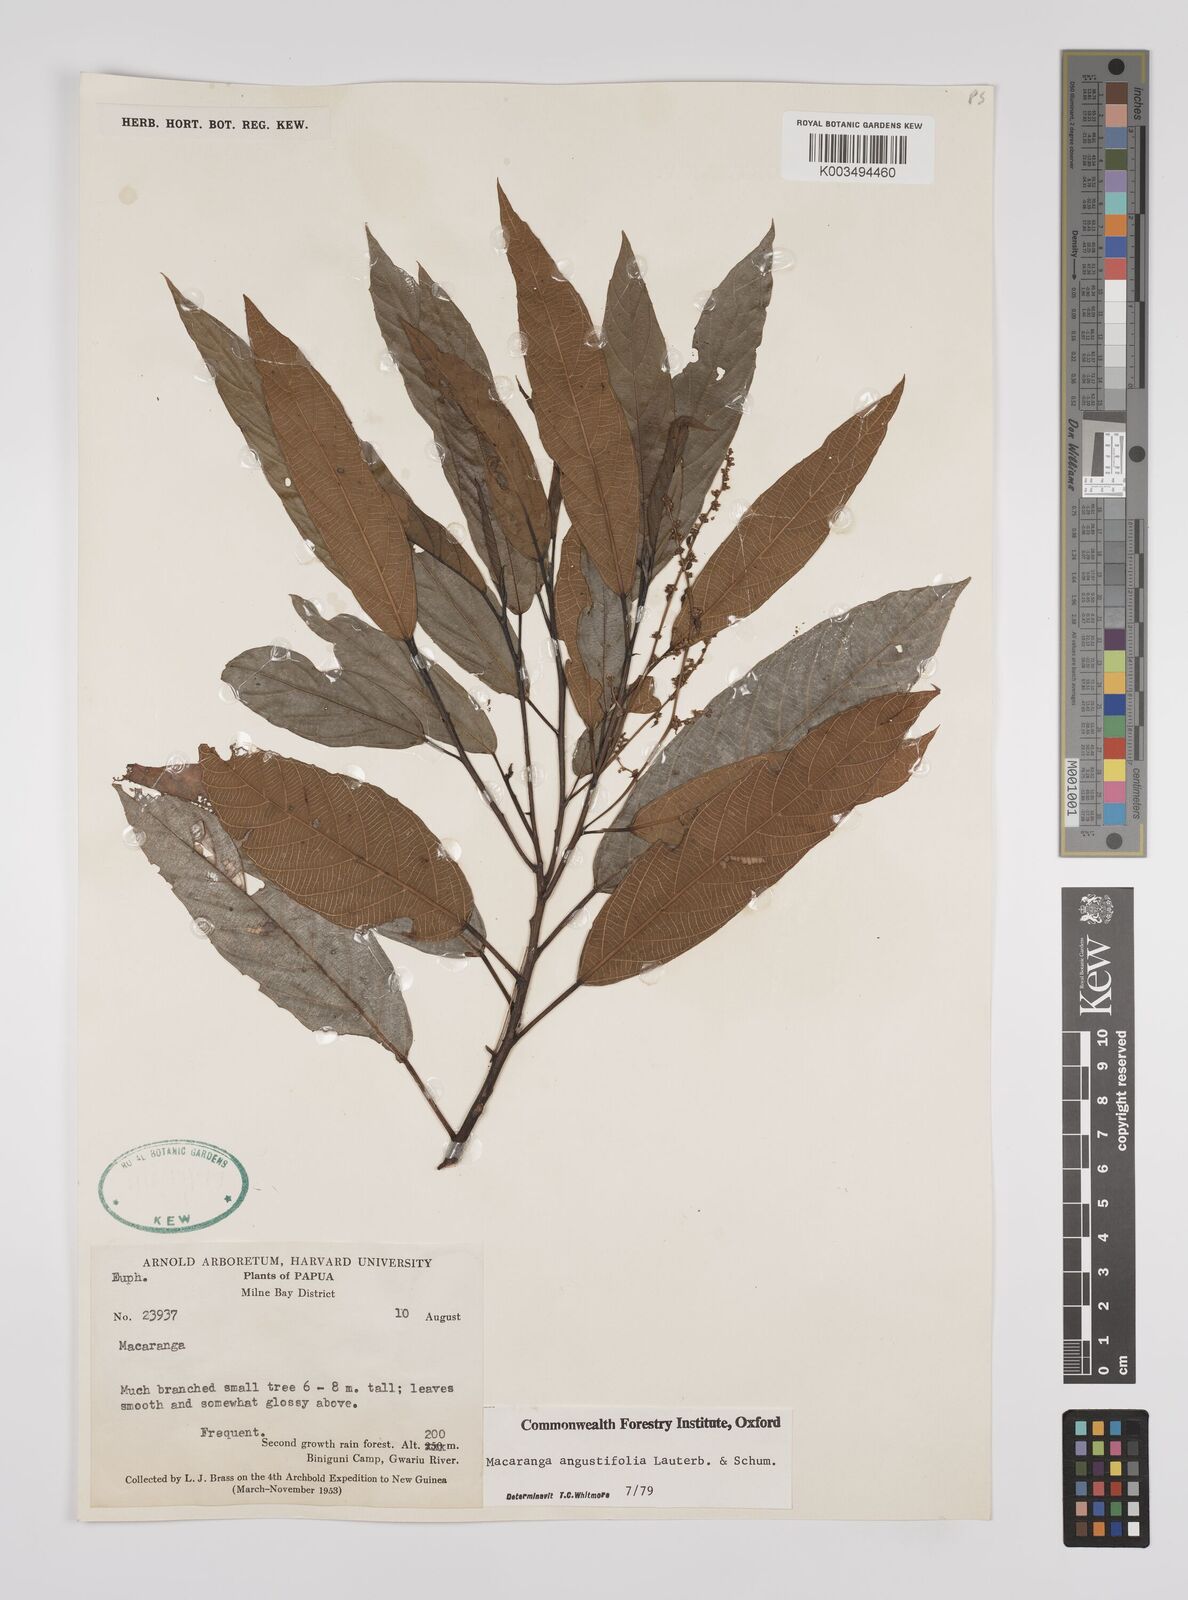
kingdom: Plantae
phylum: Tracheophyta
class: Magnoliopsida
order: Malpighiales
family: Euphorbiaceae
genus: Macaranga
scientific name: Macaranga angustifolia
